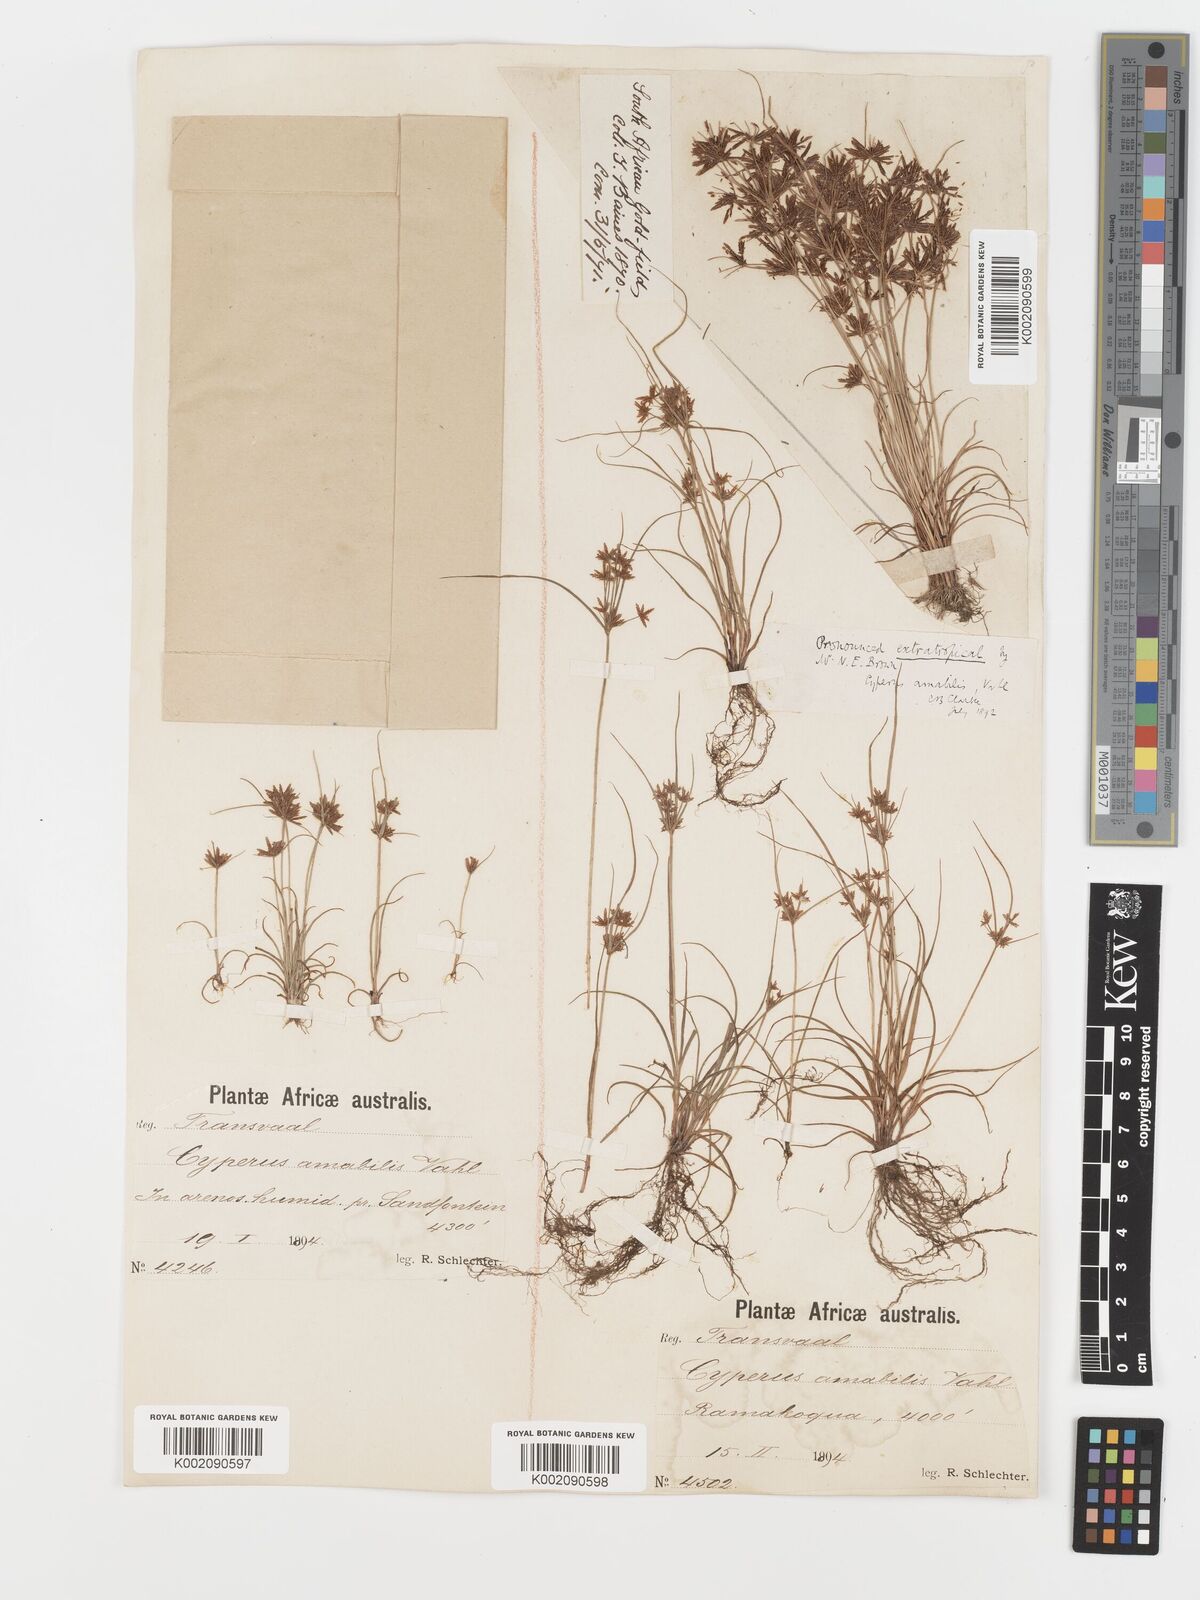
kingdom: Plantae
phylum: Tracheophyta
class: Liliopsida
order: Poales
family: Cyperaceae
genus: Cyperus
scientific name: Cyperus amabilis
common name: Foothill flat sedge
